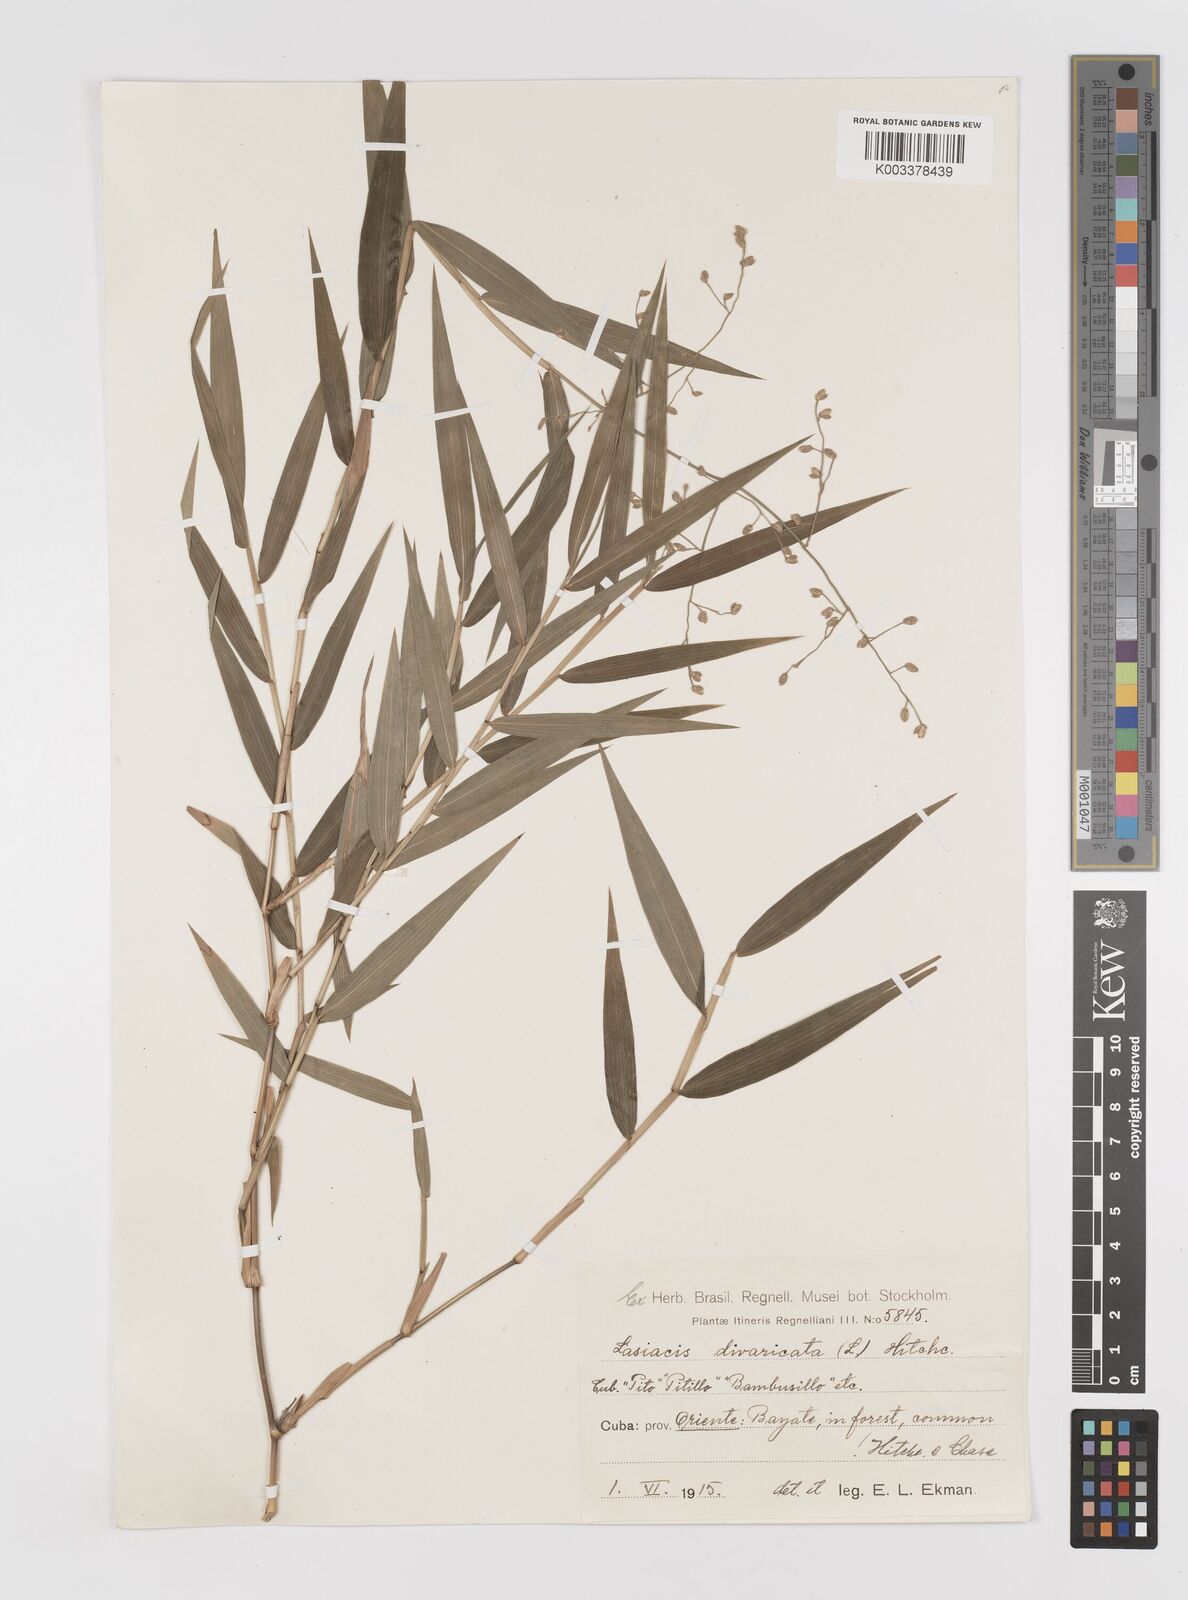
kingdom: Plantae
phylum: Tracheophyta
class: Liliopsida
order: Poales
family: Poaceae
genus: Lasiacis
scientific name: Lasiacis divaricata
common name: Smallcane
